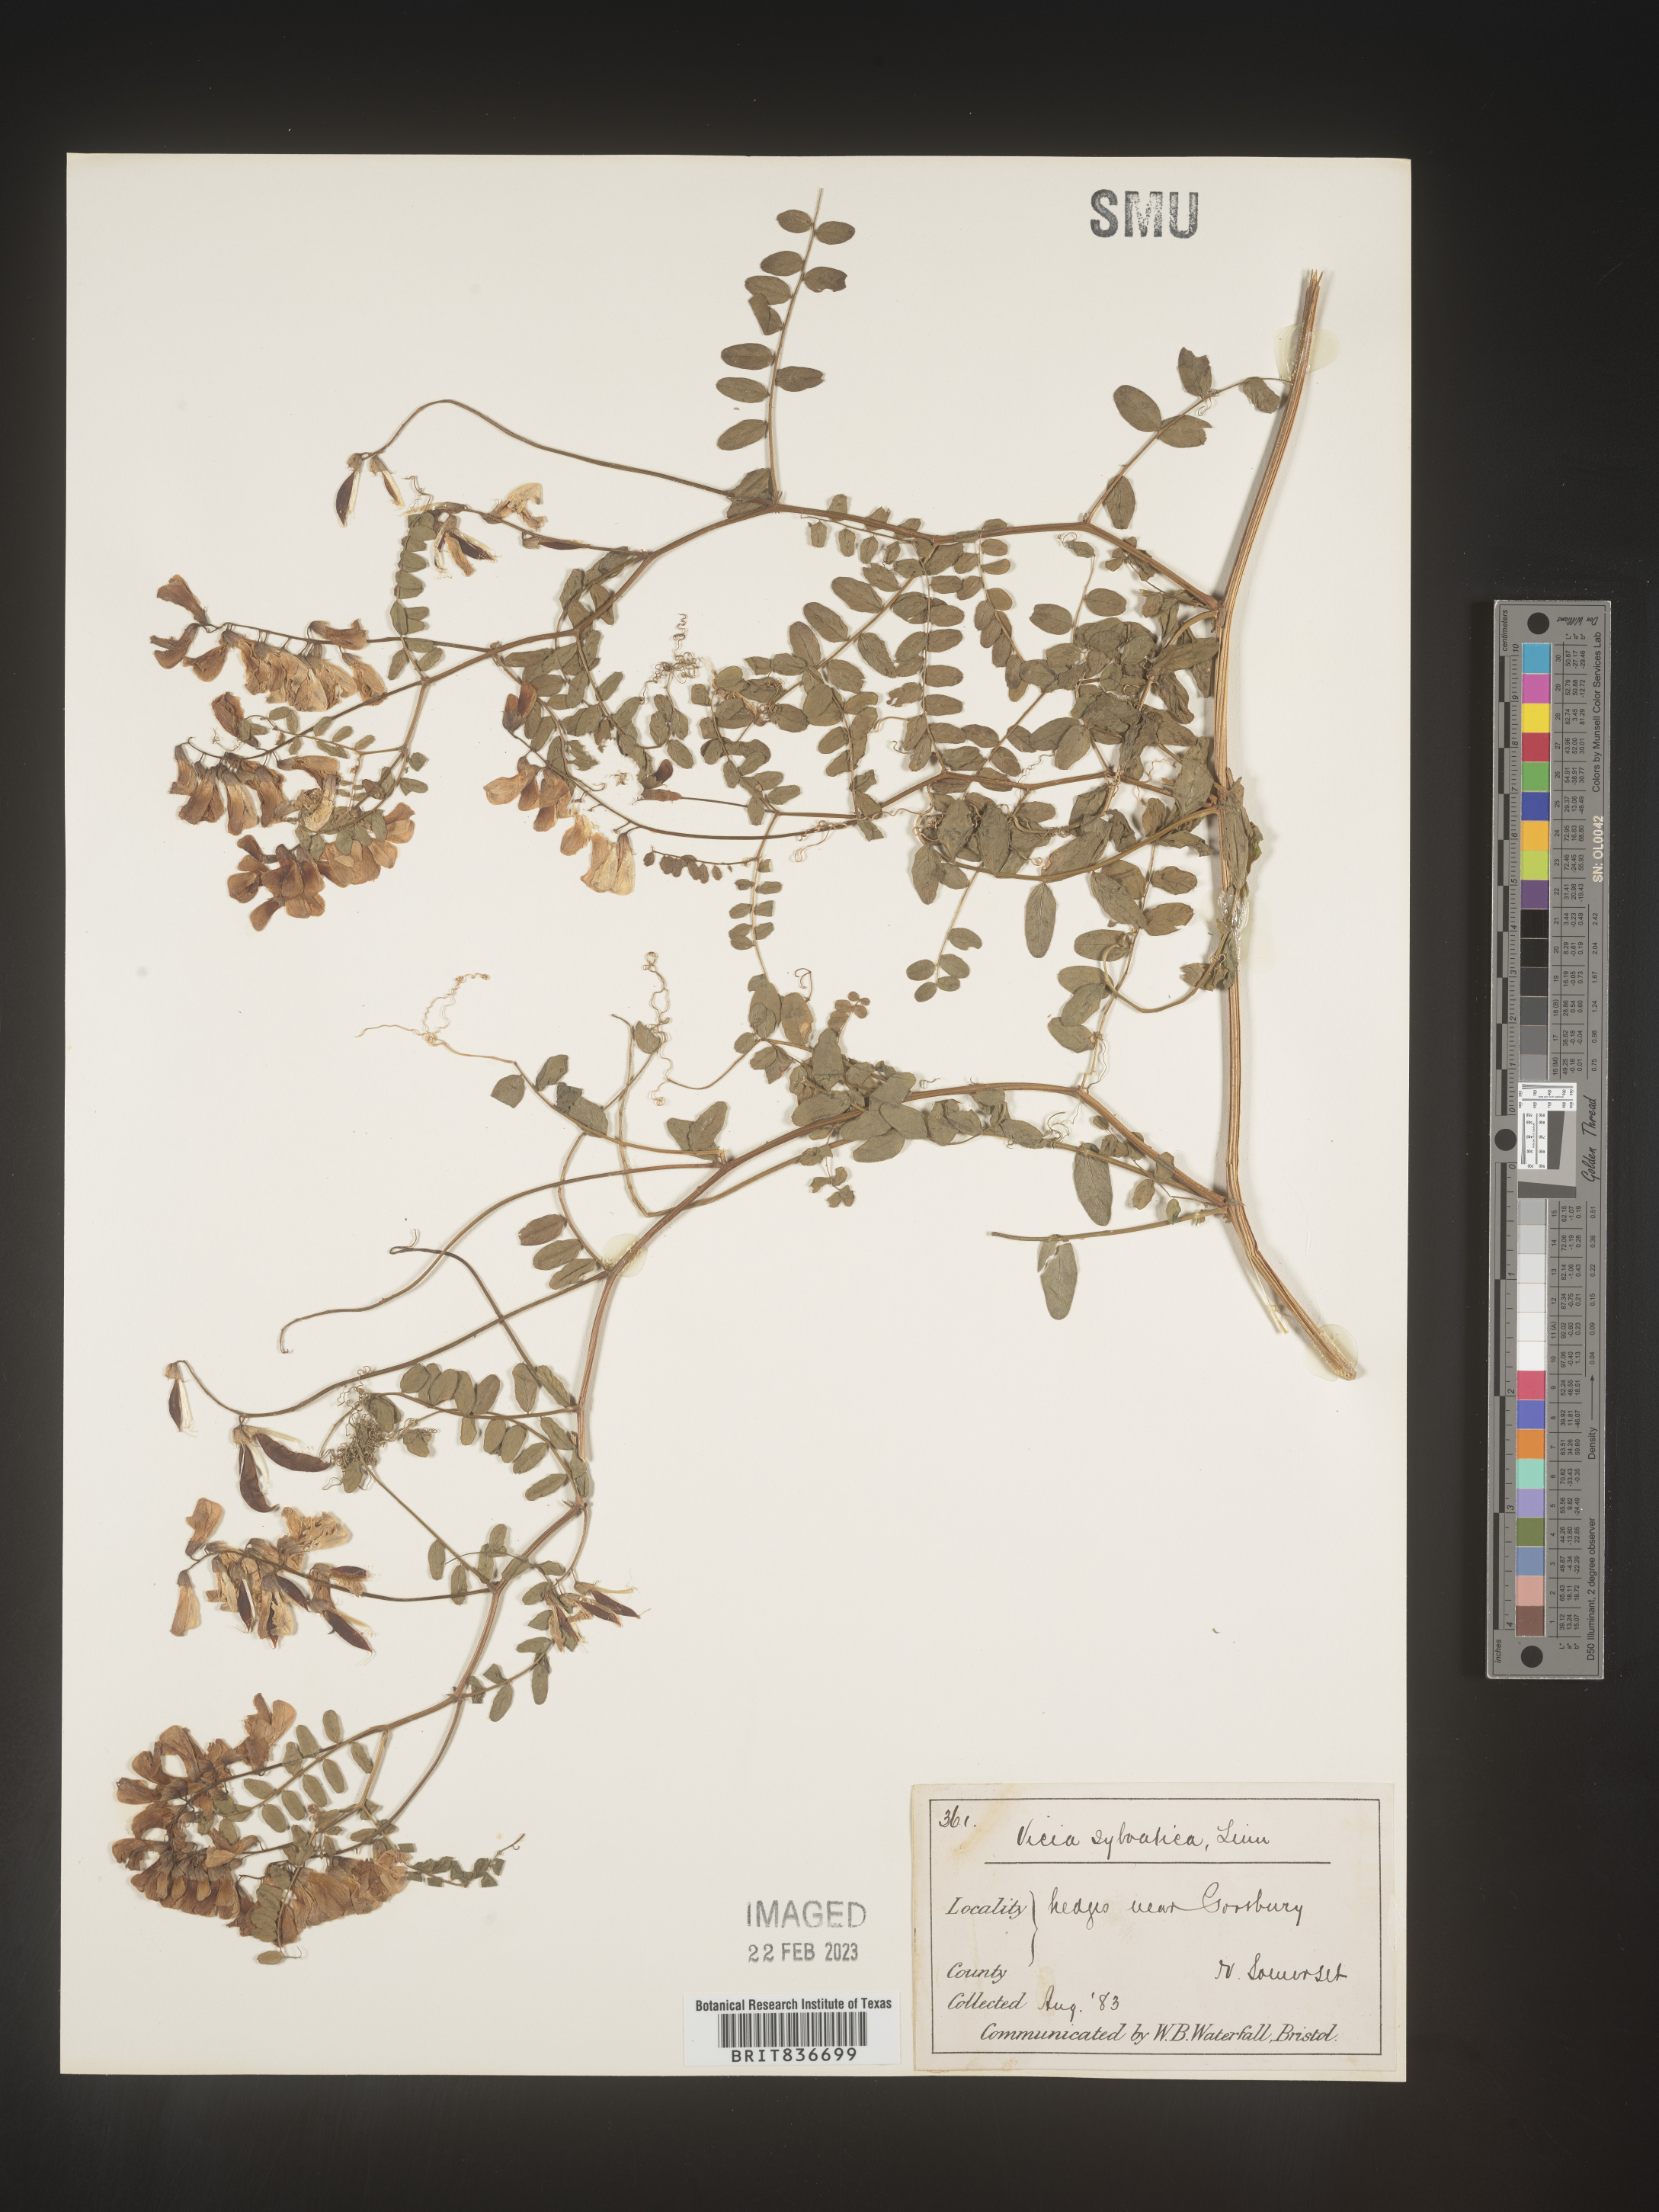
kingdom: Plantae
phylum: Tracheophyta
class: Magnoliopsida
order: Fabales
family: Fabaceae
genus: Vicia
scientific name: Vicia sylvatica
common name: Wood vetch
